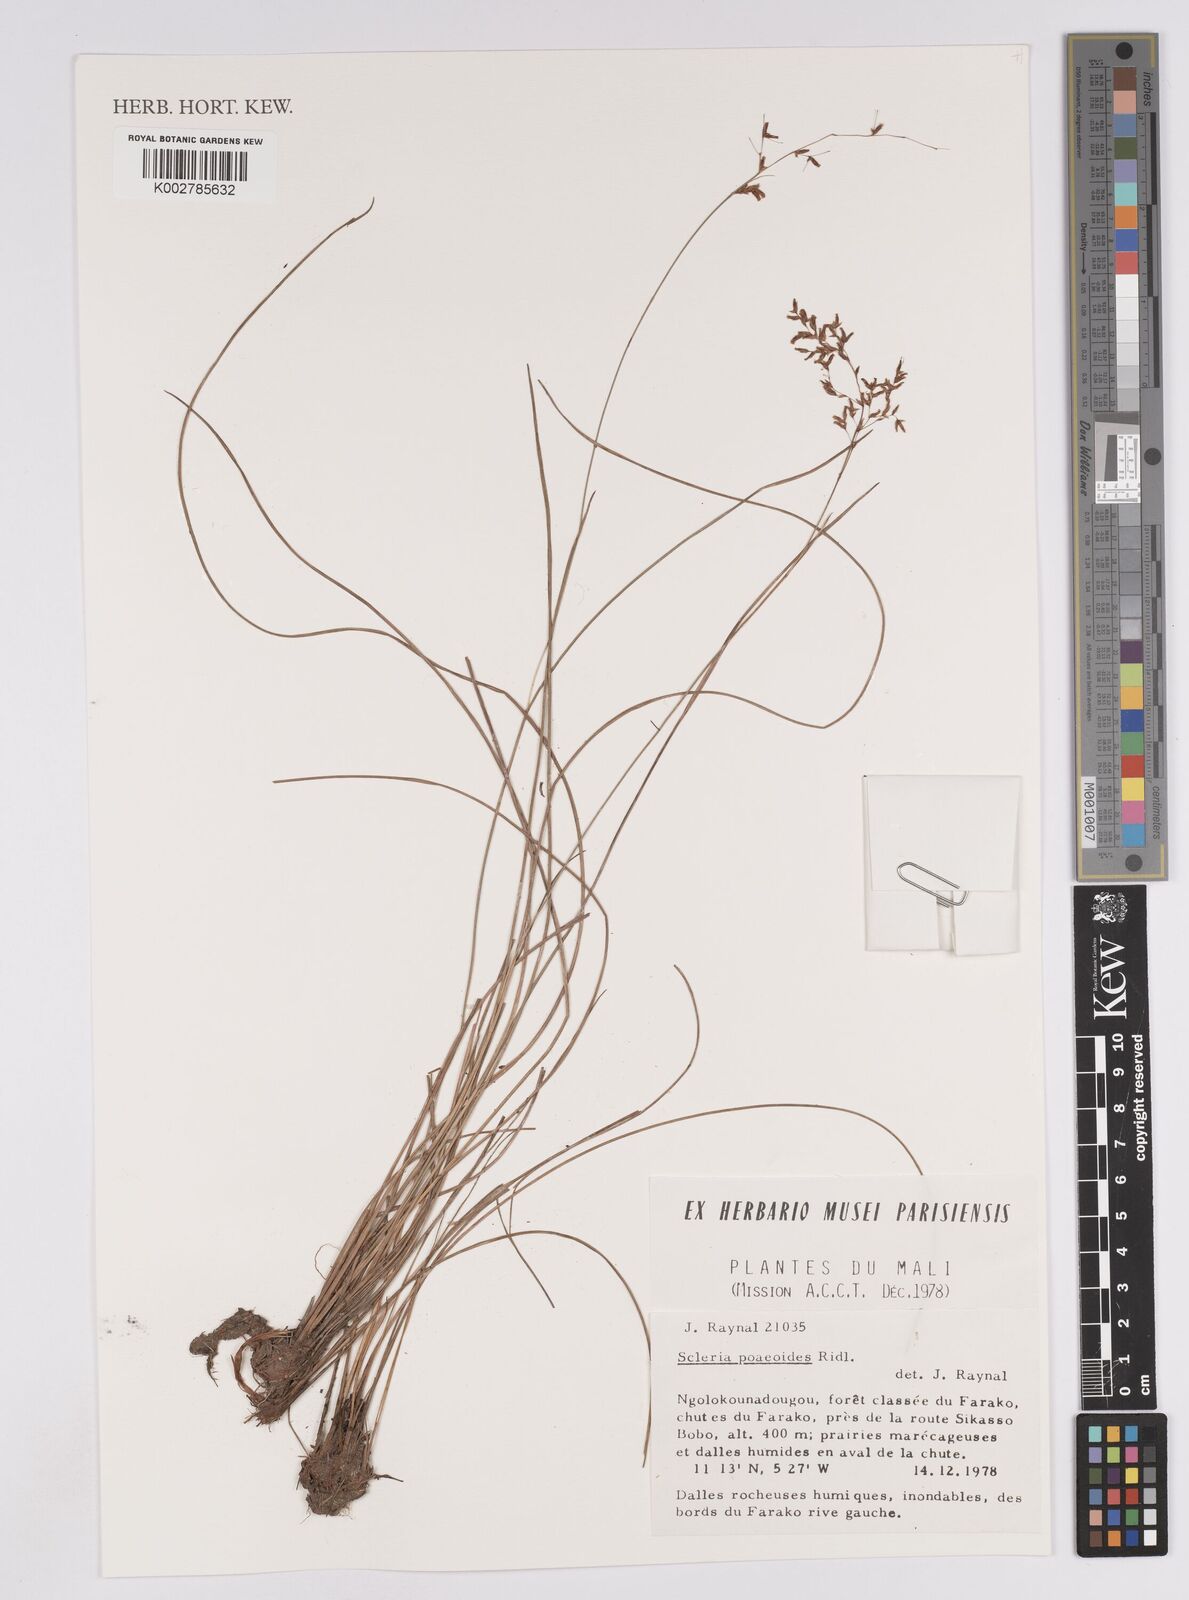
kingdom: Plantae
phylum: Tracheophyta
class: Liliopsida
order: Poales
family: Cyperaceae
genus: Scleria
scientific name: Scleria pooides
